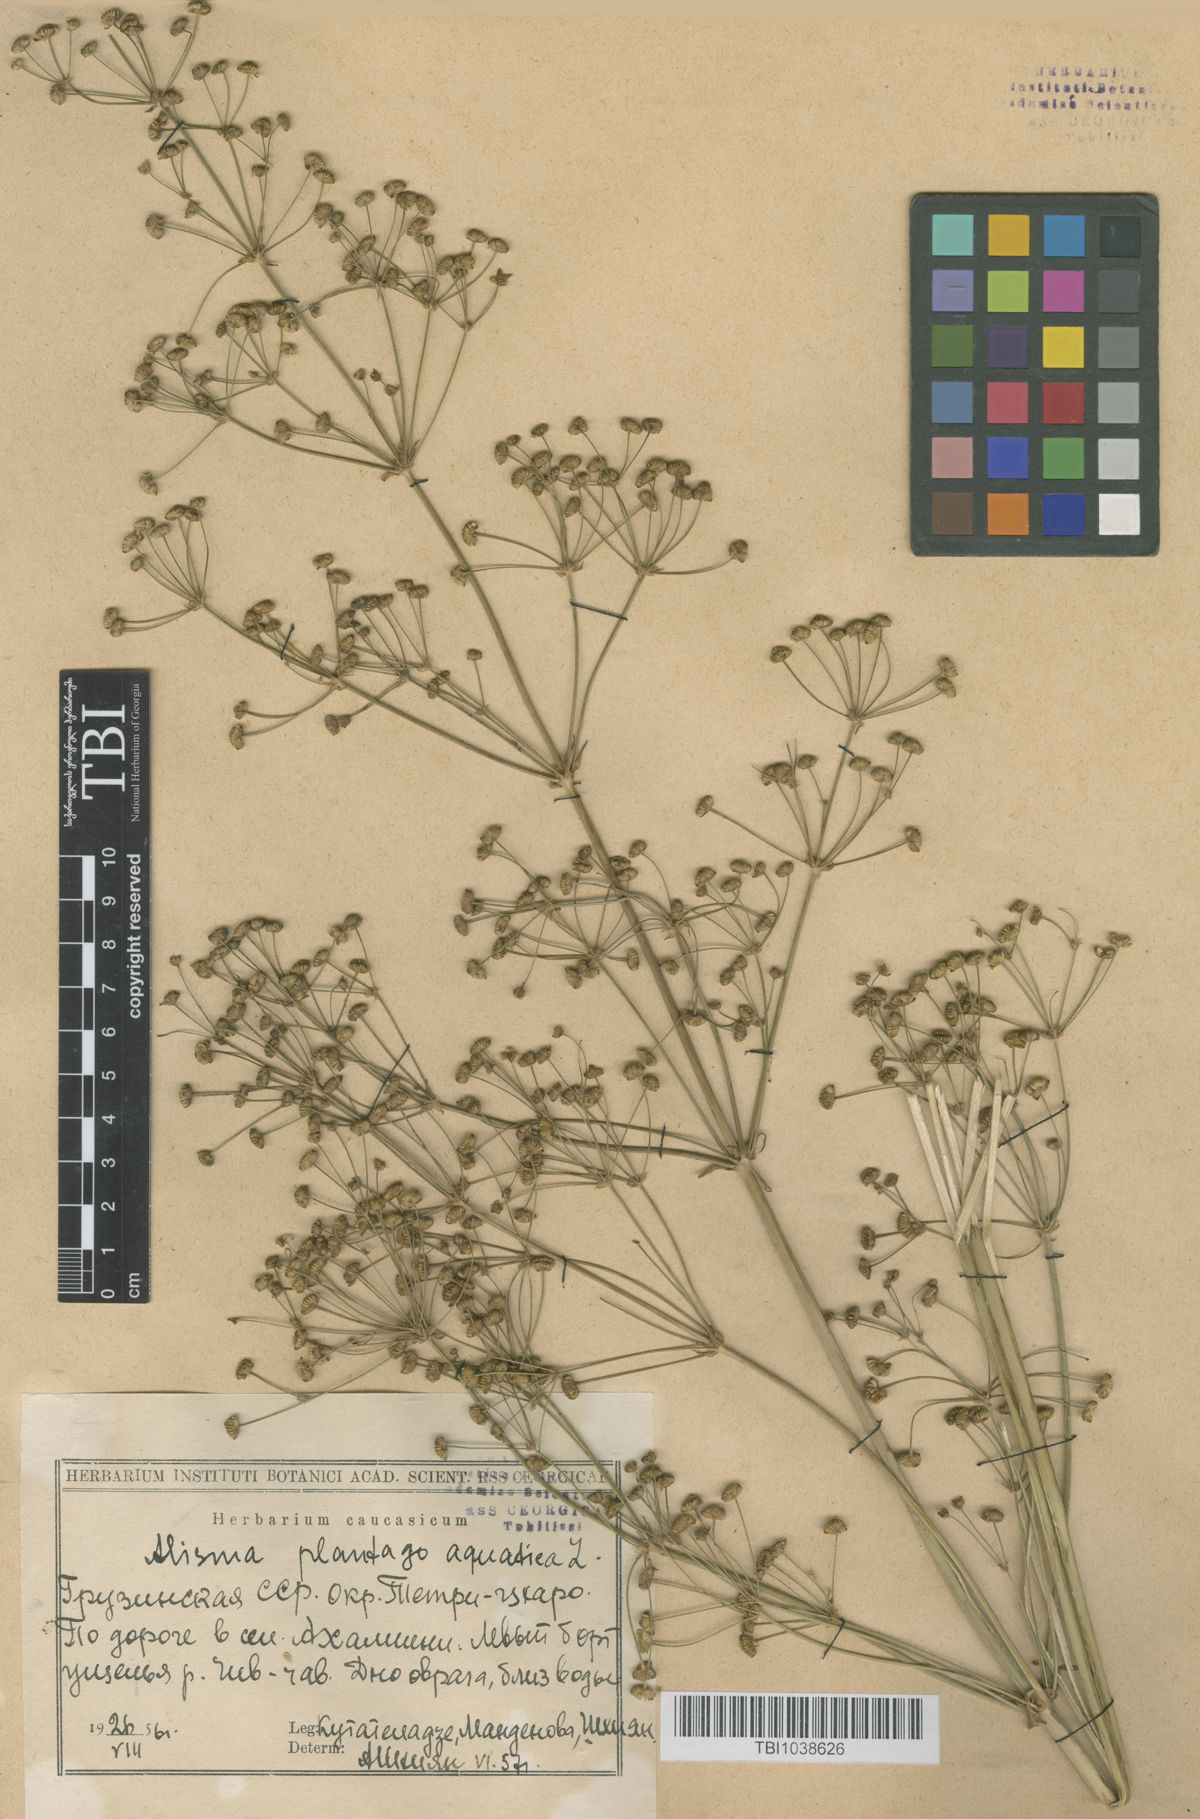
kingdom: Plantae
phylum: Tracheophyta
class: Liliopsida
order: Alismatales
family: Alismataceae
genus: Alisma
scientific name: Alisma plantago-aquatica
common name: Water-plantain
